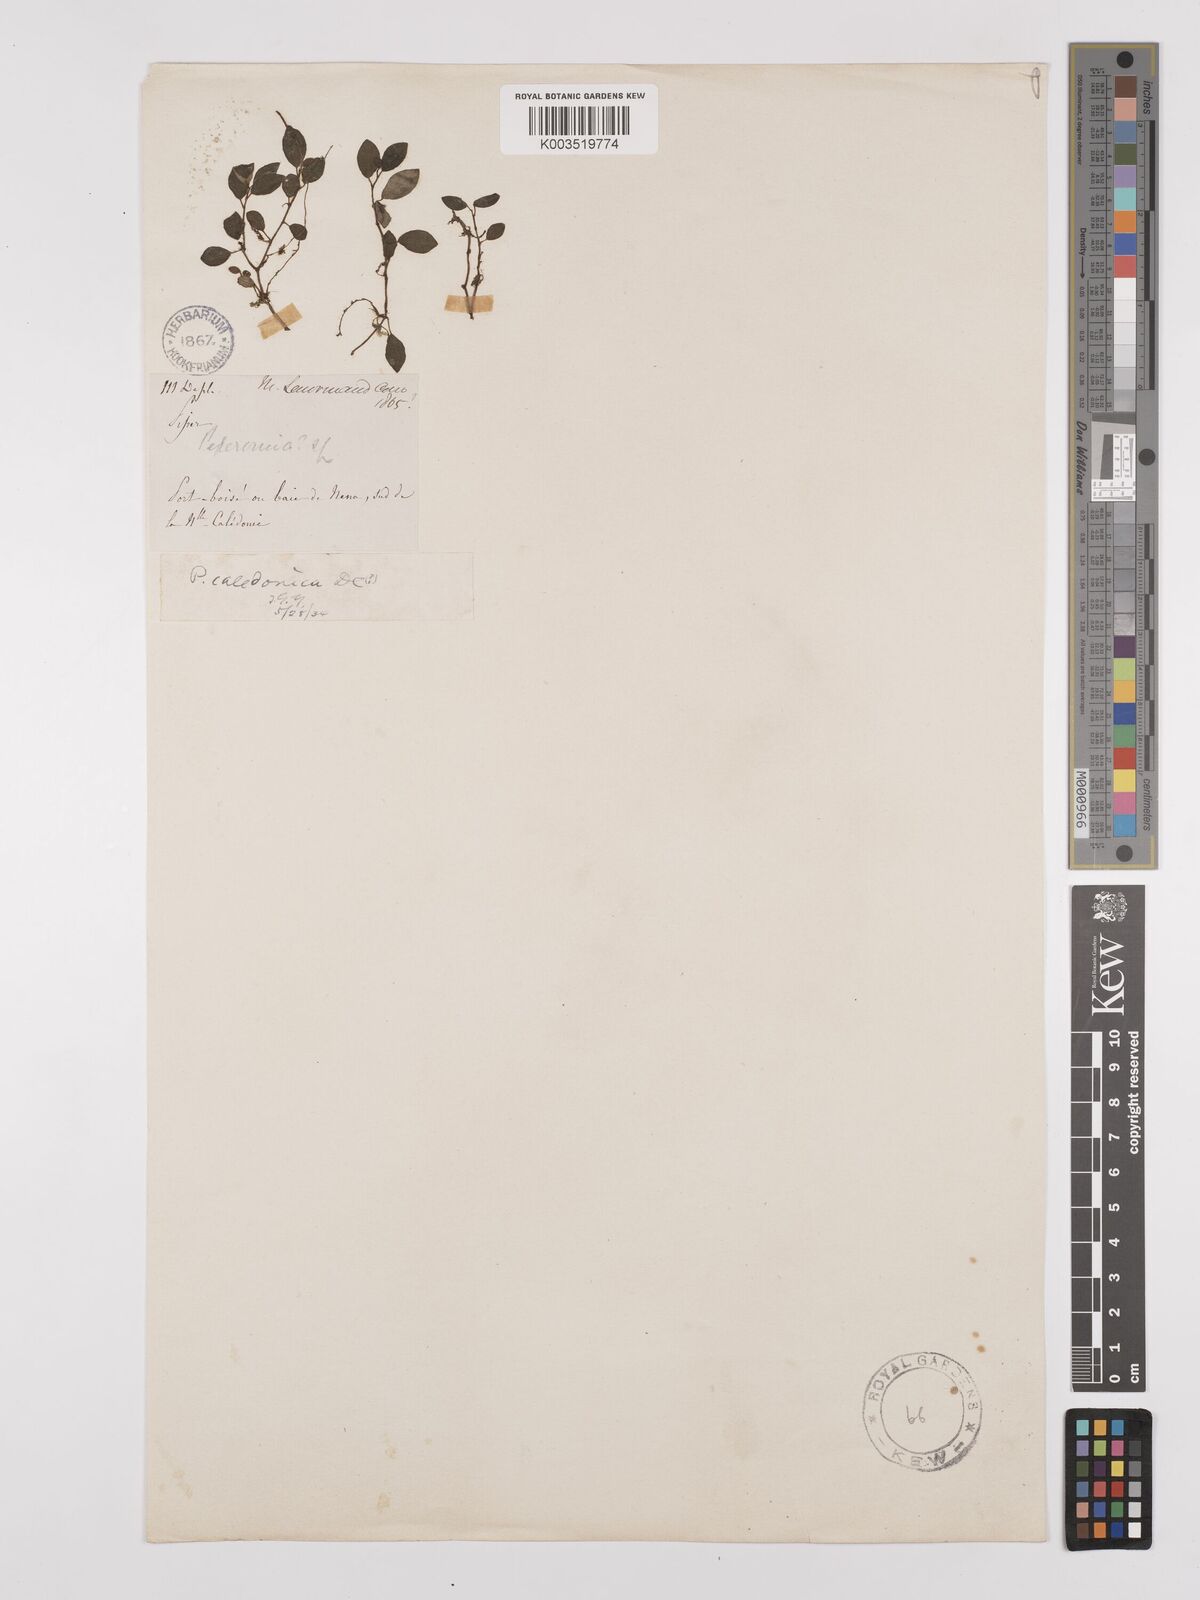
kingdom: Plantae
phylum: Tracheophyta
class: Magnoliopsida
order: Piperales
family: Piperaceae
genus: Peperomia
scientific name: Peperomia urvilleana
